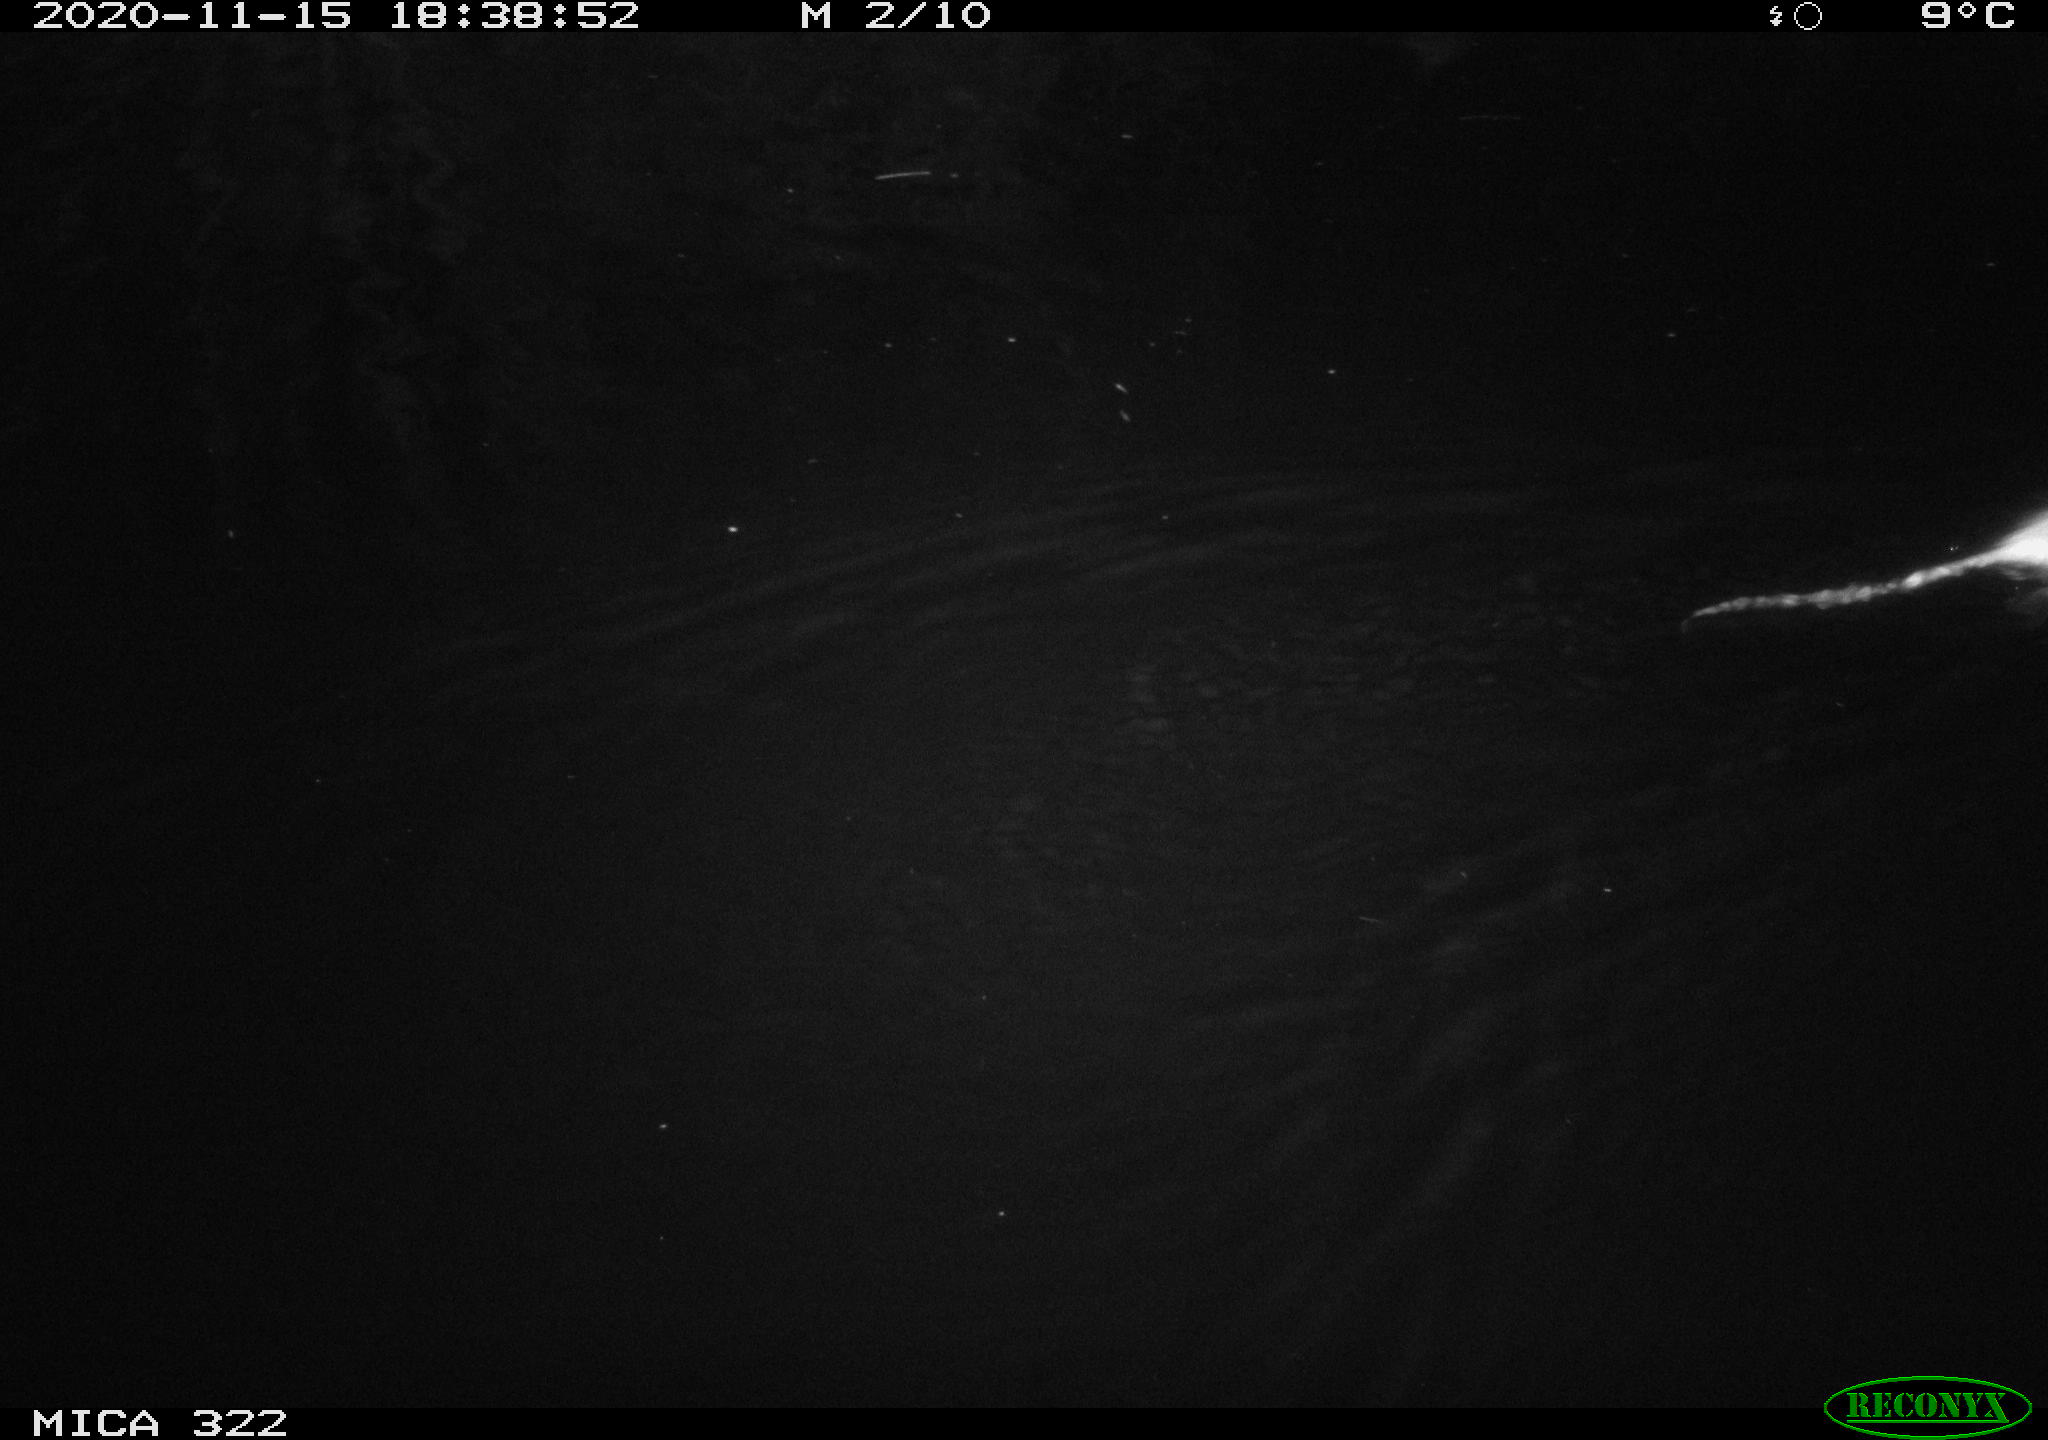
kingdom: Animalia
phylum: Chordata
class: Mammalia
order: Rodentia
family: Muridae
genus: Rattus
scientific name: Rattus norvegicus
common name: Brown rat
